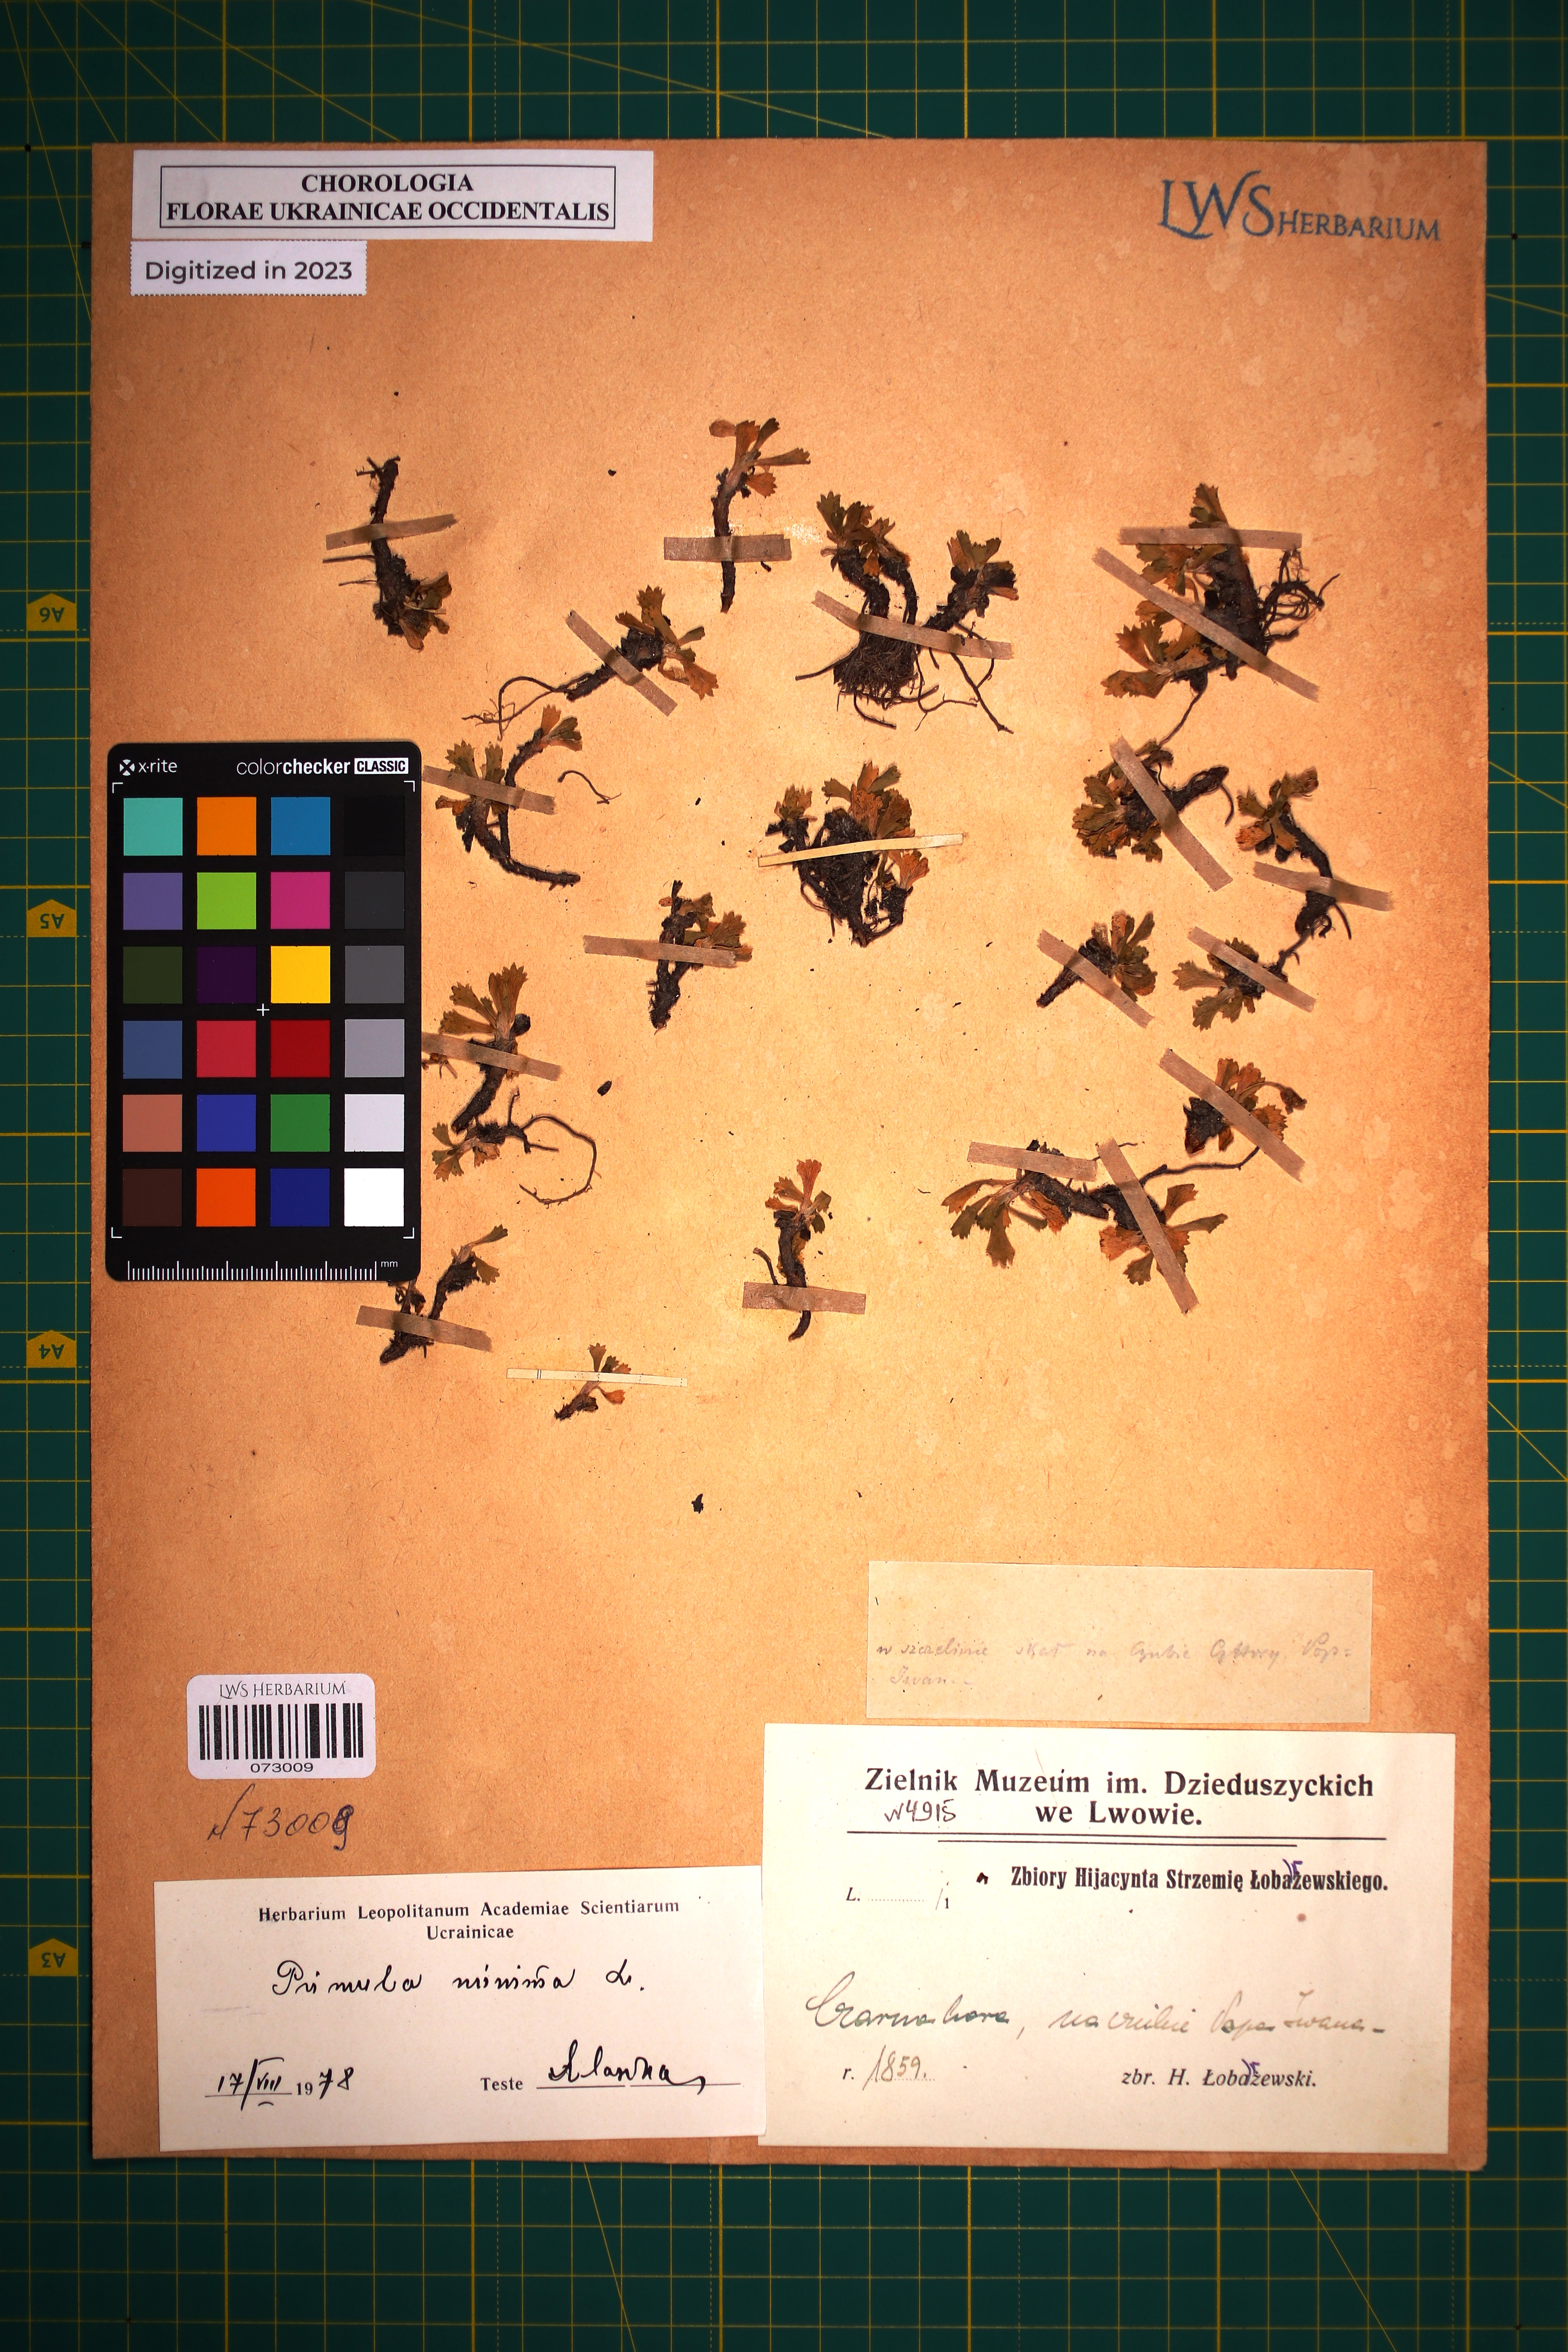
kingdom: Plantae
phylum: Tracheophyta
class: Magnoliopsida
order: Ericales
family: Primulaceae
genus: Primula
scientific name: Primula minima
